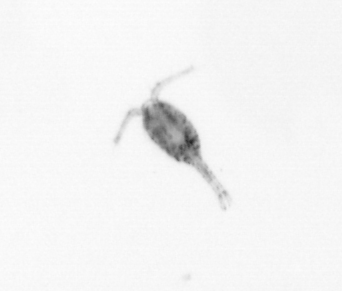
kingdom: Animalia
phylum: Arthropoda
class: Copepoda
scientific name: Copepoda
